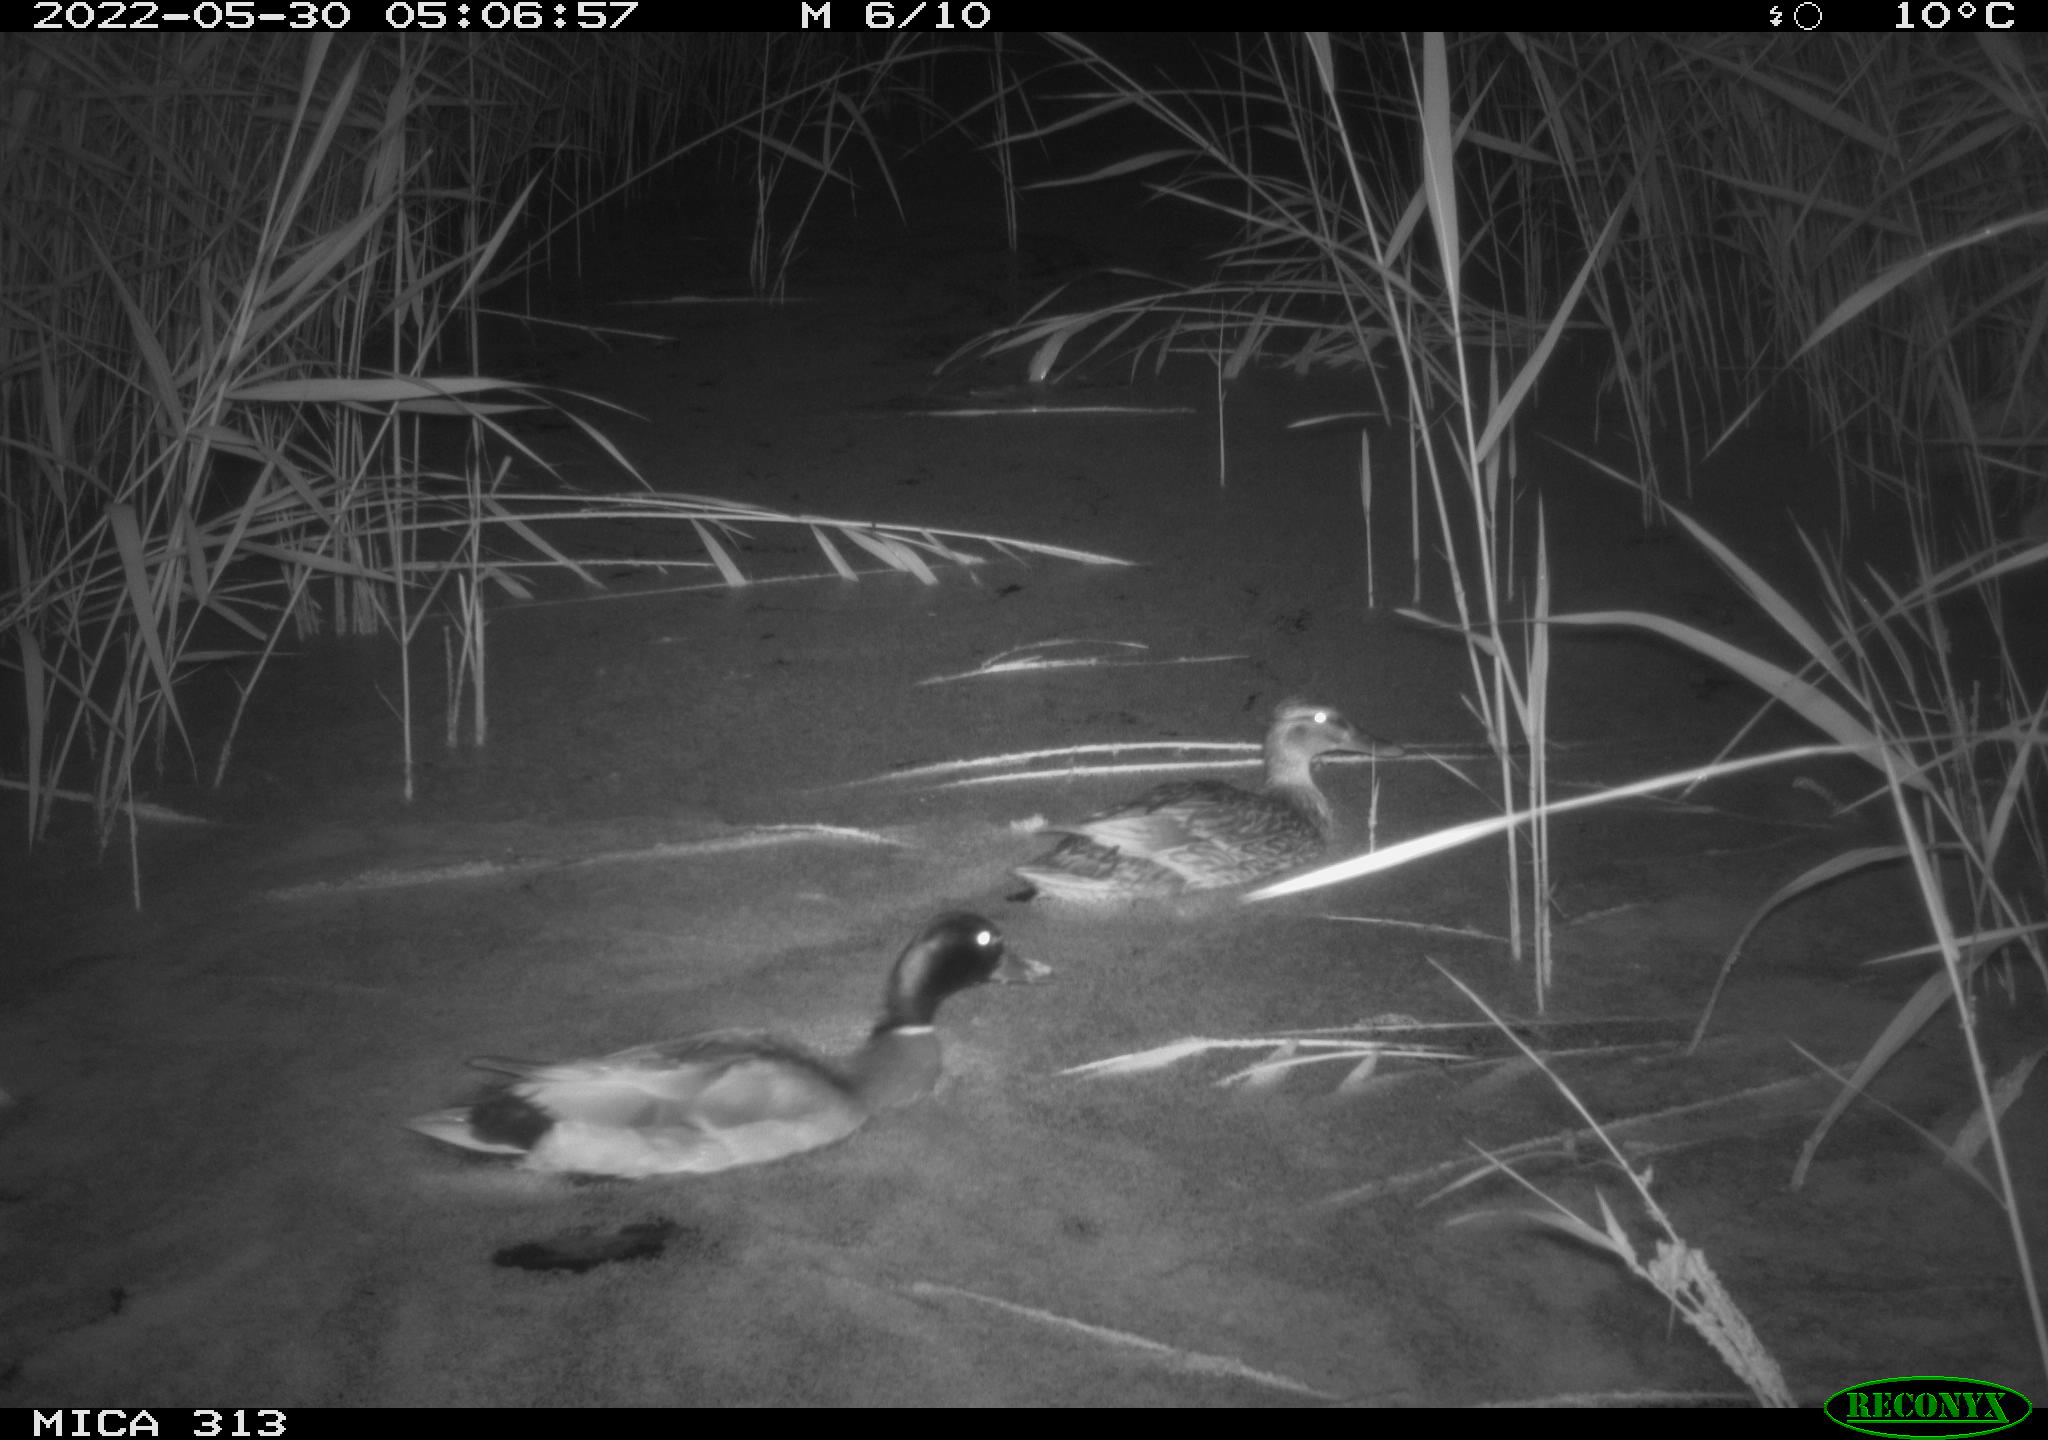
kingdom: Animalia
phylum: Chordata
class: Aves
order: Anseriformes
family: Anatidae
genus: Anas
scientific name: Anas platyrhynchos
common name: Mallard
